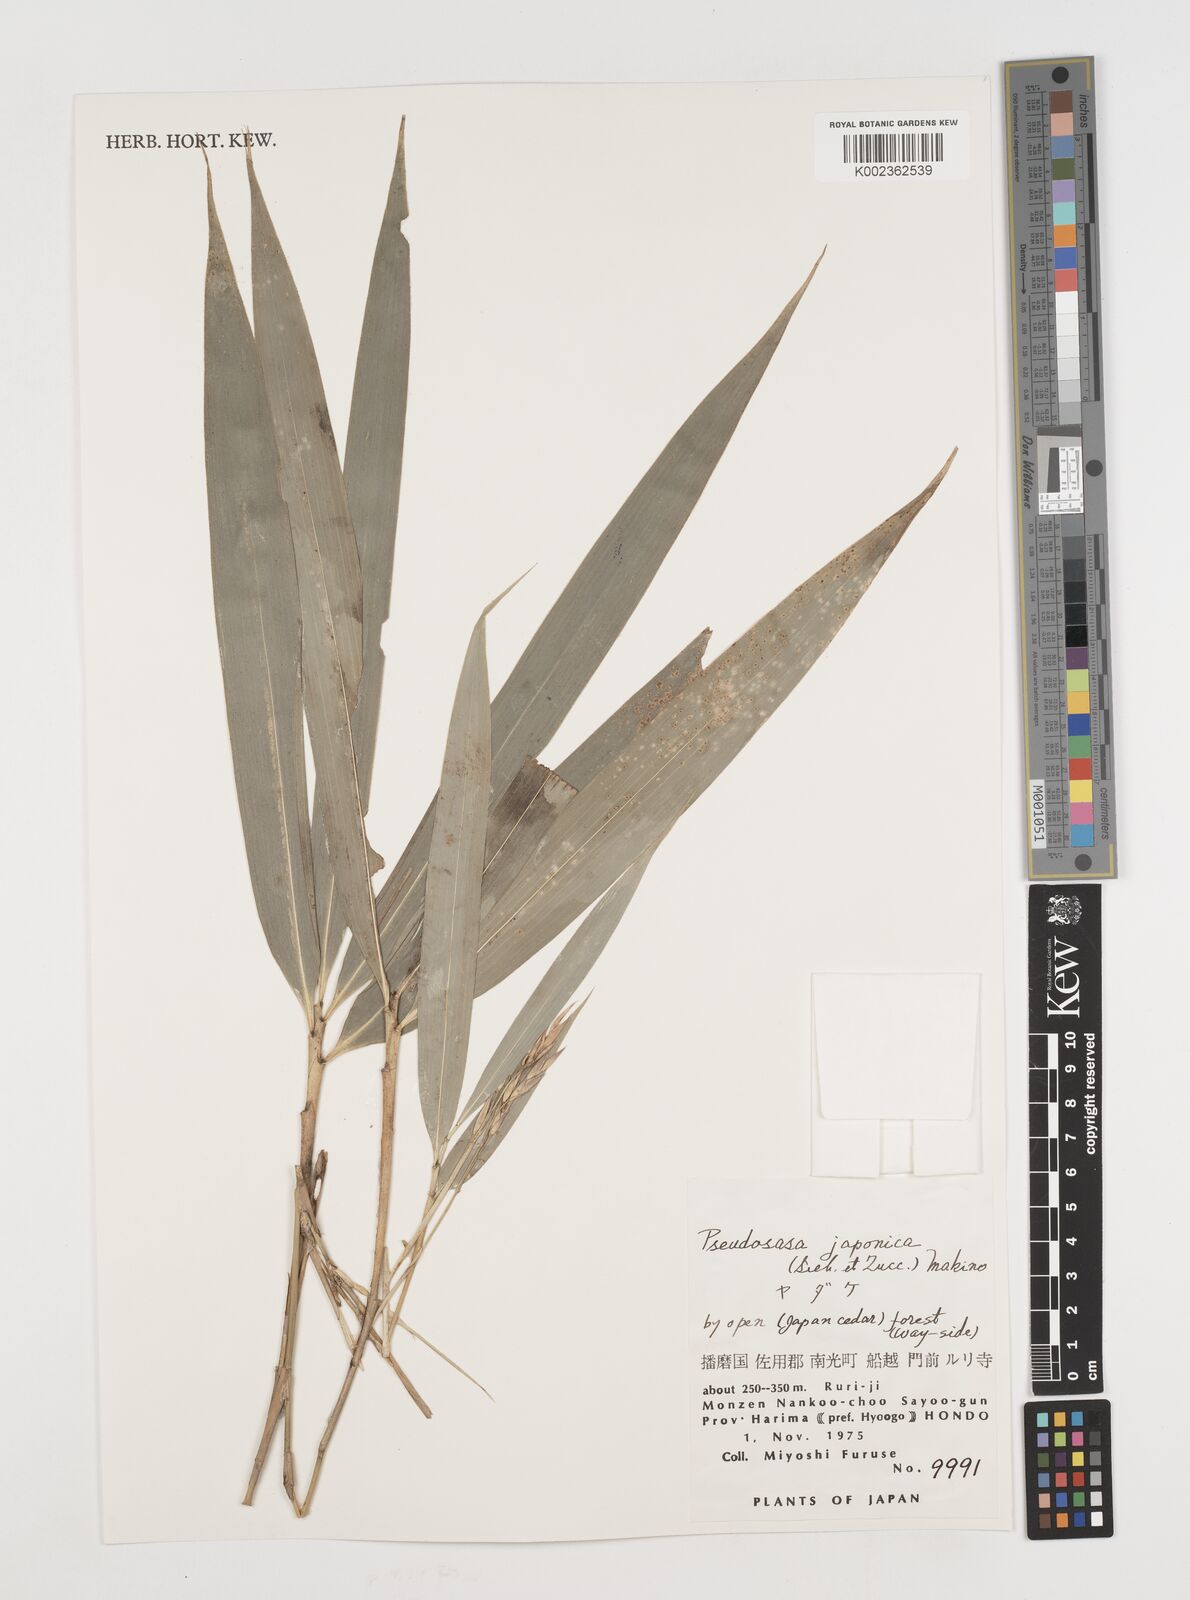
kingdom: Plantae
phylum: Tracheophyta
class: Liliopsida
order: Poales
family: Poaceae
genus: Pseudosasa
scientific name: Pseudosasa japonica
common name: Arrow bamboo
